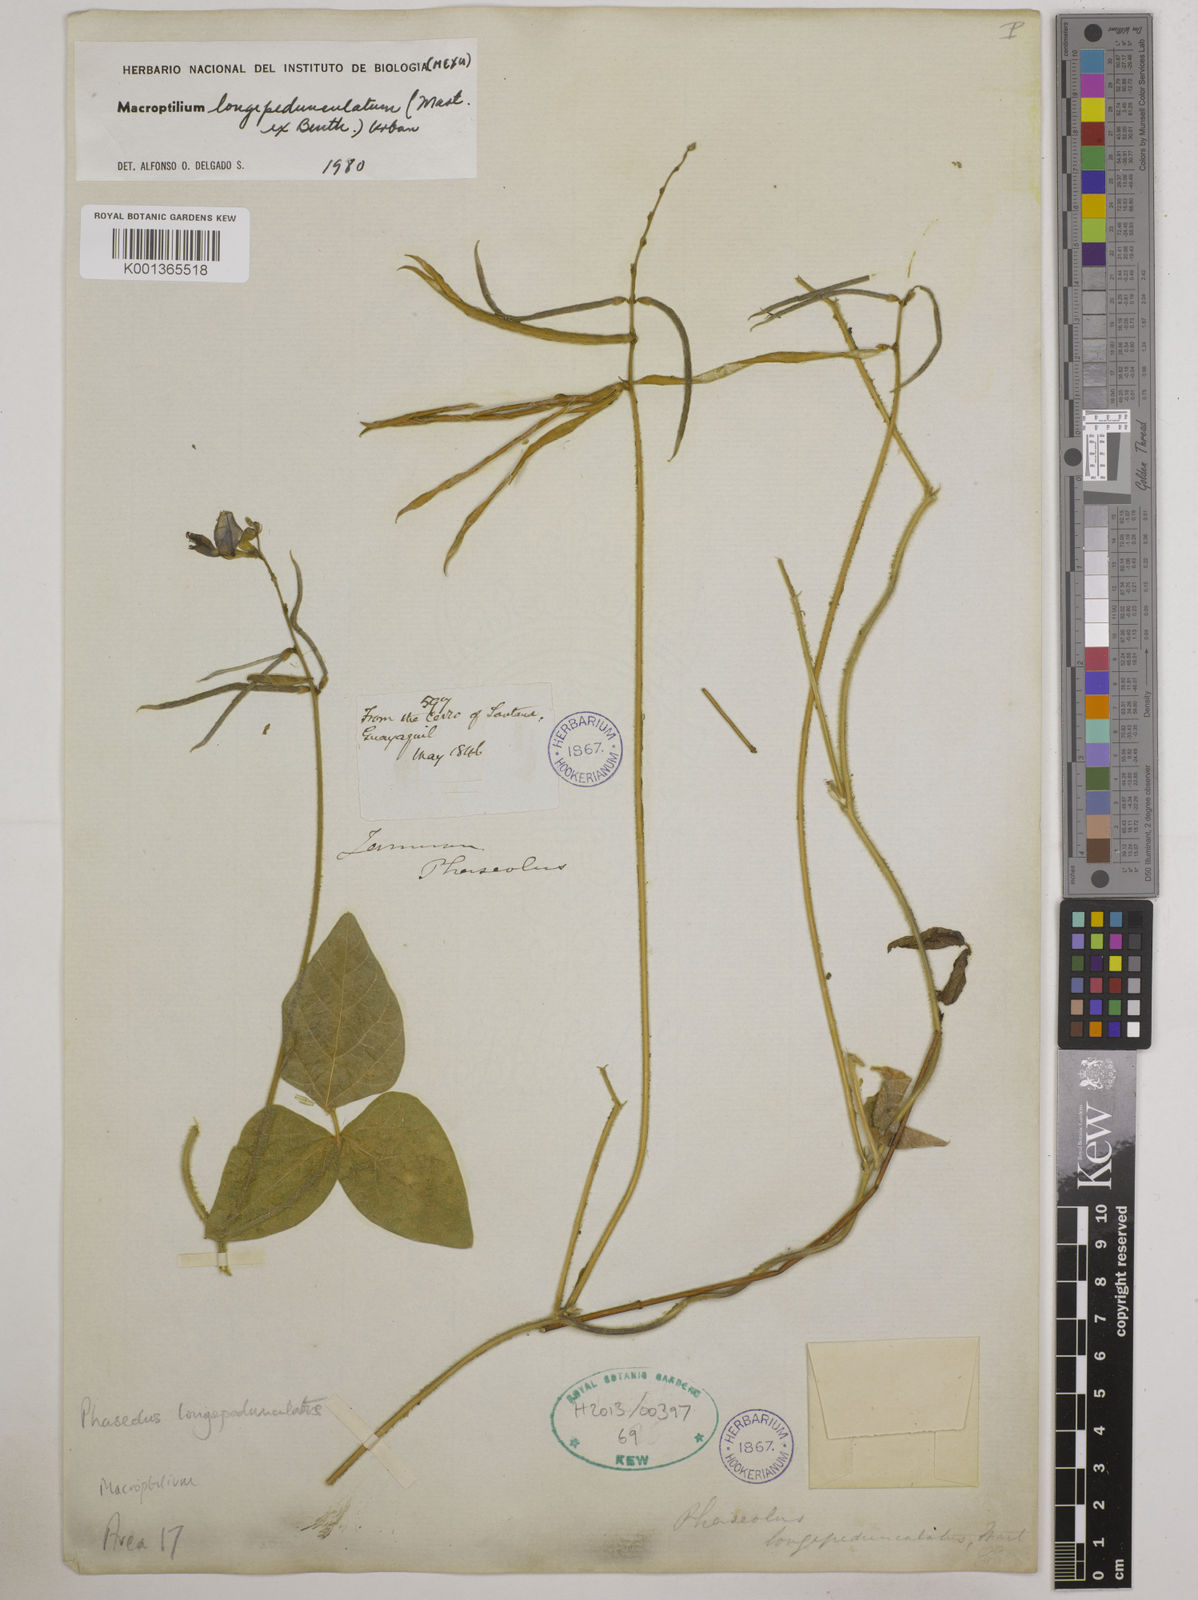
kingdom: Plantae
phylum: Tracheophyta
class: Magnoliopsida
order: Fabales
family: Fabaceae
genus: Macroptilium
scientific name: Macroptilium longepedunculatum
